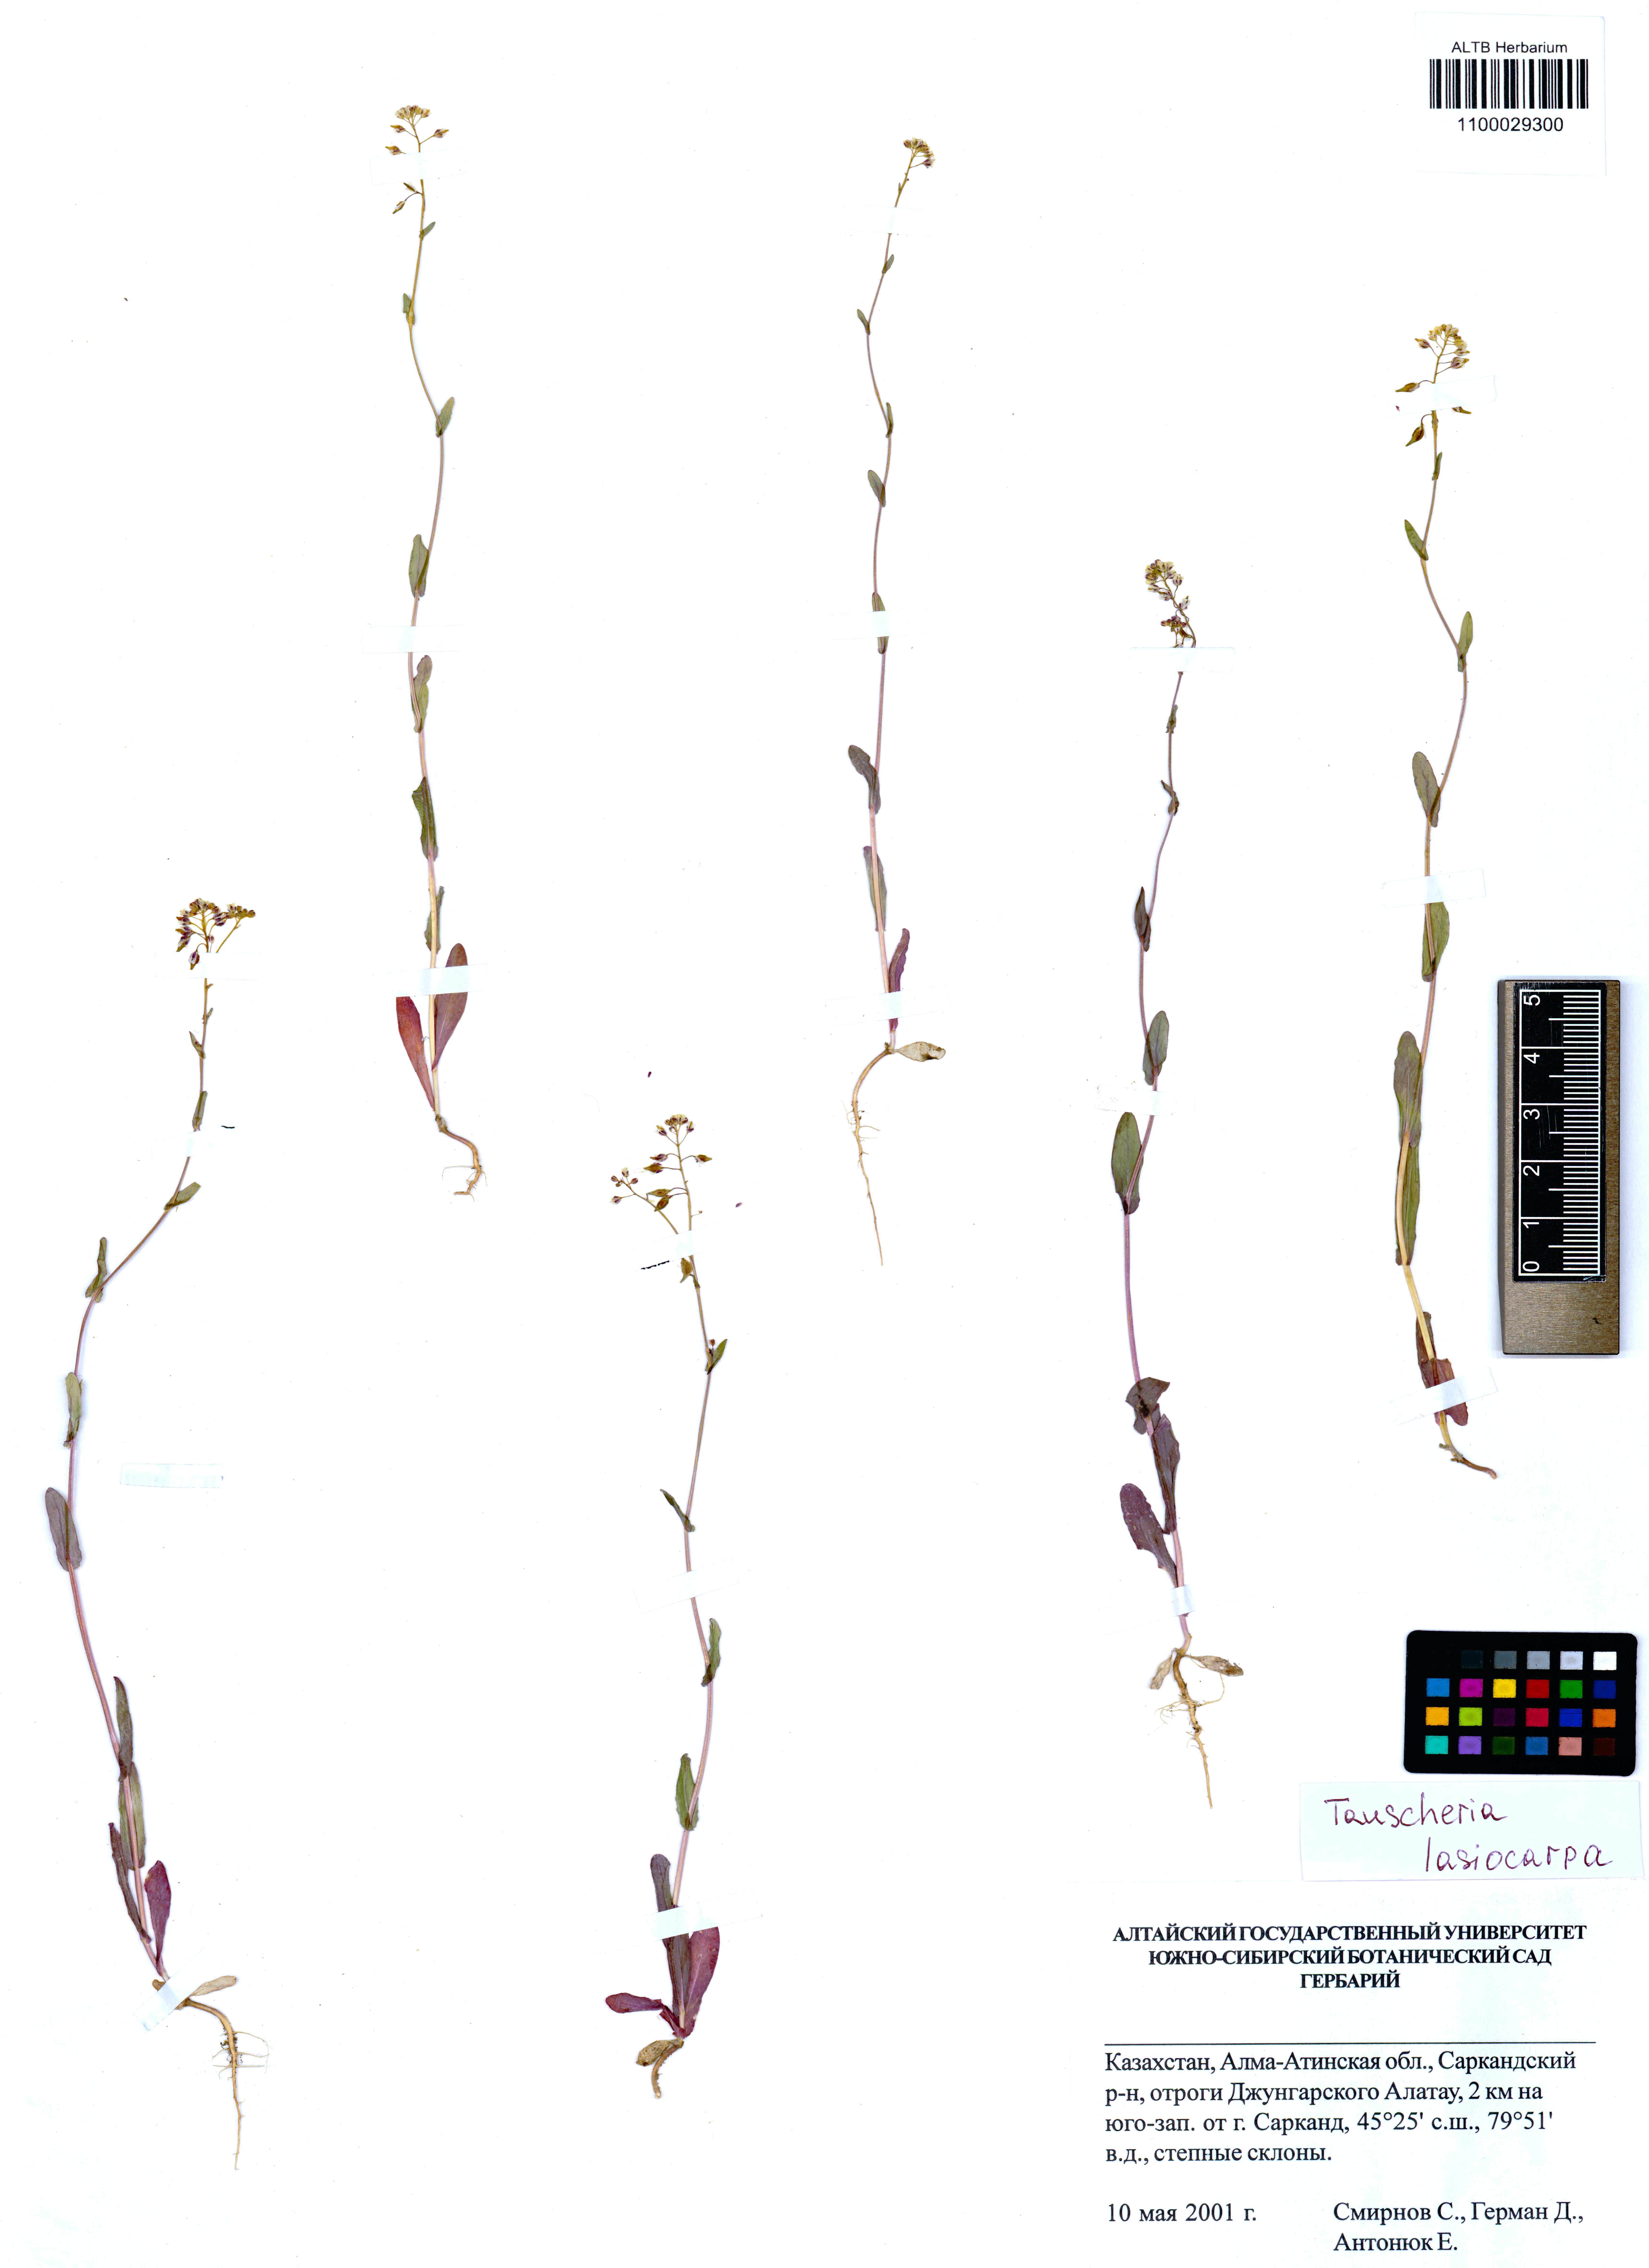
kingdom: Plantae
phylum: Tracheophyta
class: Magnoliopsida
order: Brassicales
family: Brassicaceae
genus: Tauscheria
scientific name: Tauscheria lasiocarpa
